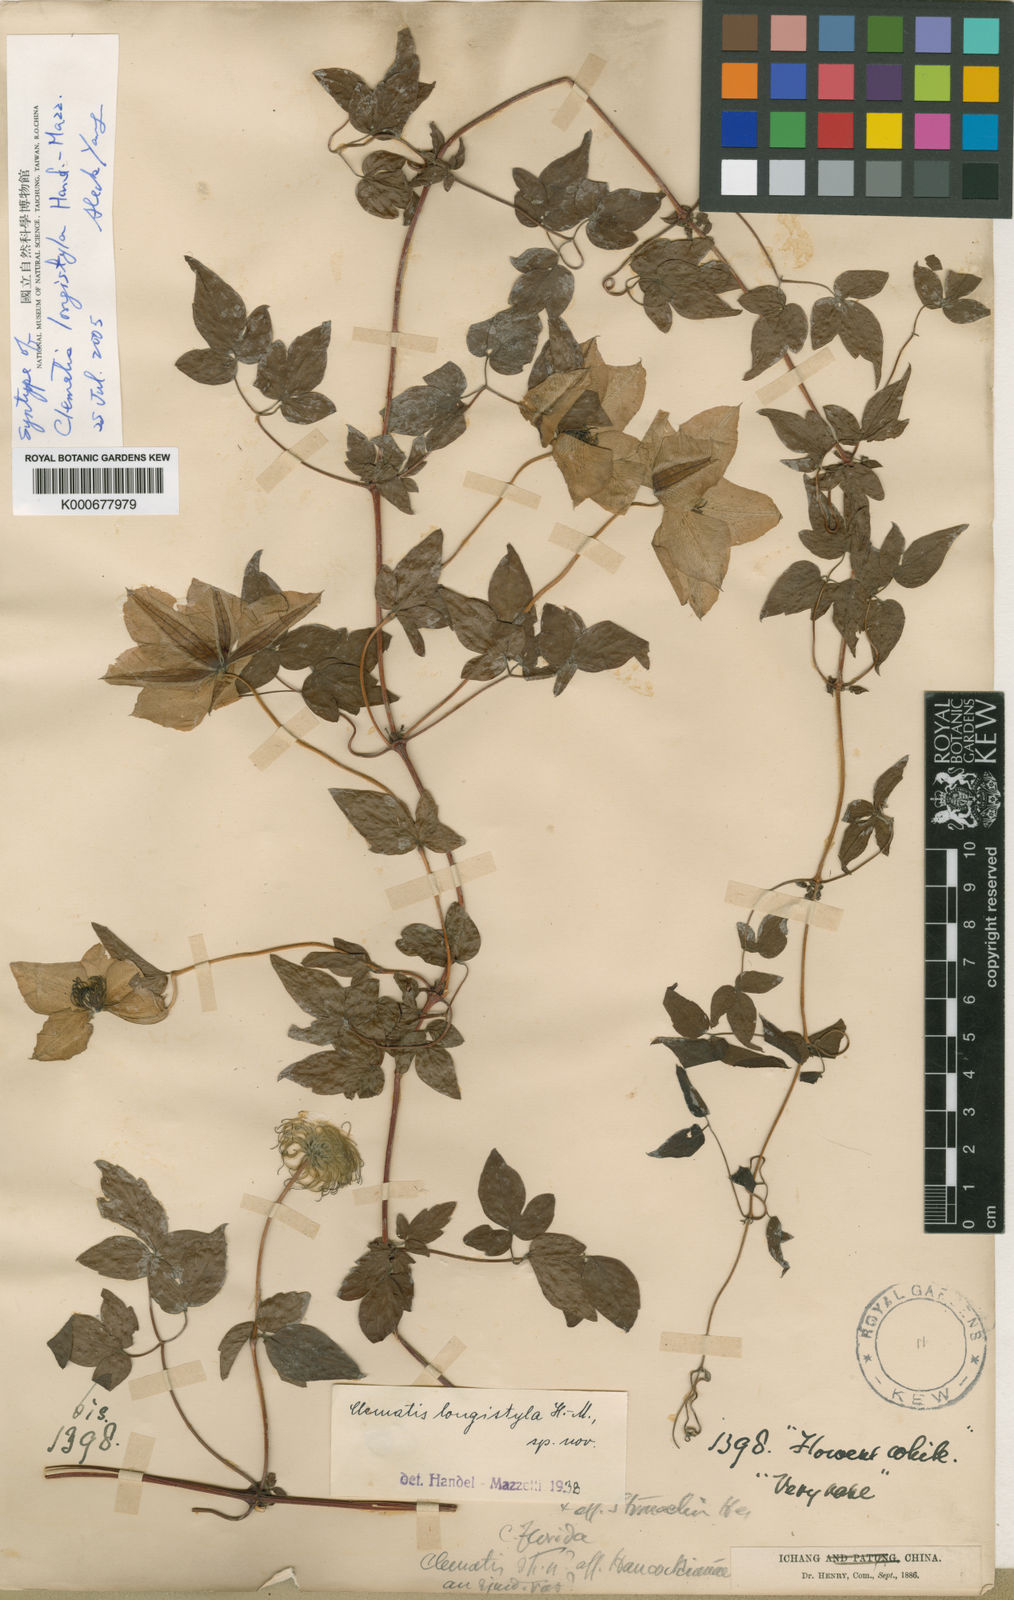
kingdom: Plantae
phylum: Tracheophyta
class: Magnoliopsida
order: Ranunculales
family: Ranunculaceae
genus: Clematis
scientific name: Clematis longistyla
